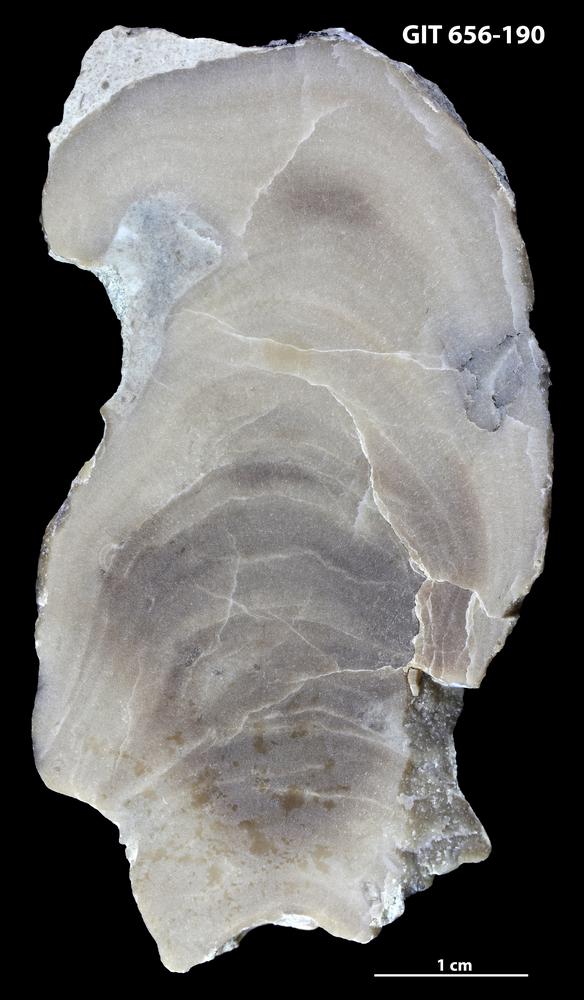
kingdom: Animalia
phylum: Porifera
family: Actinostromatidae
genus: Plectostroma
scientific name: Plectostroma
